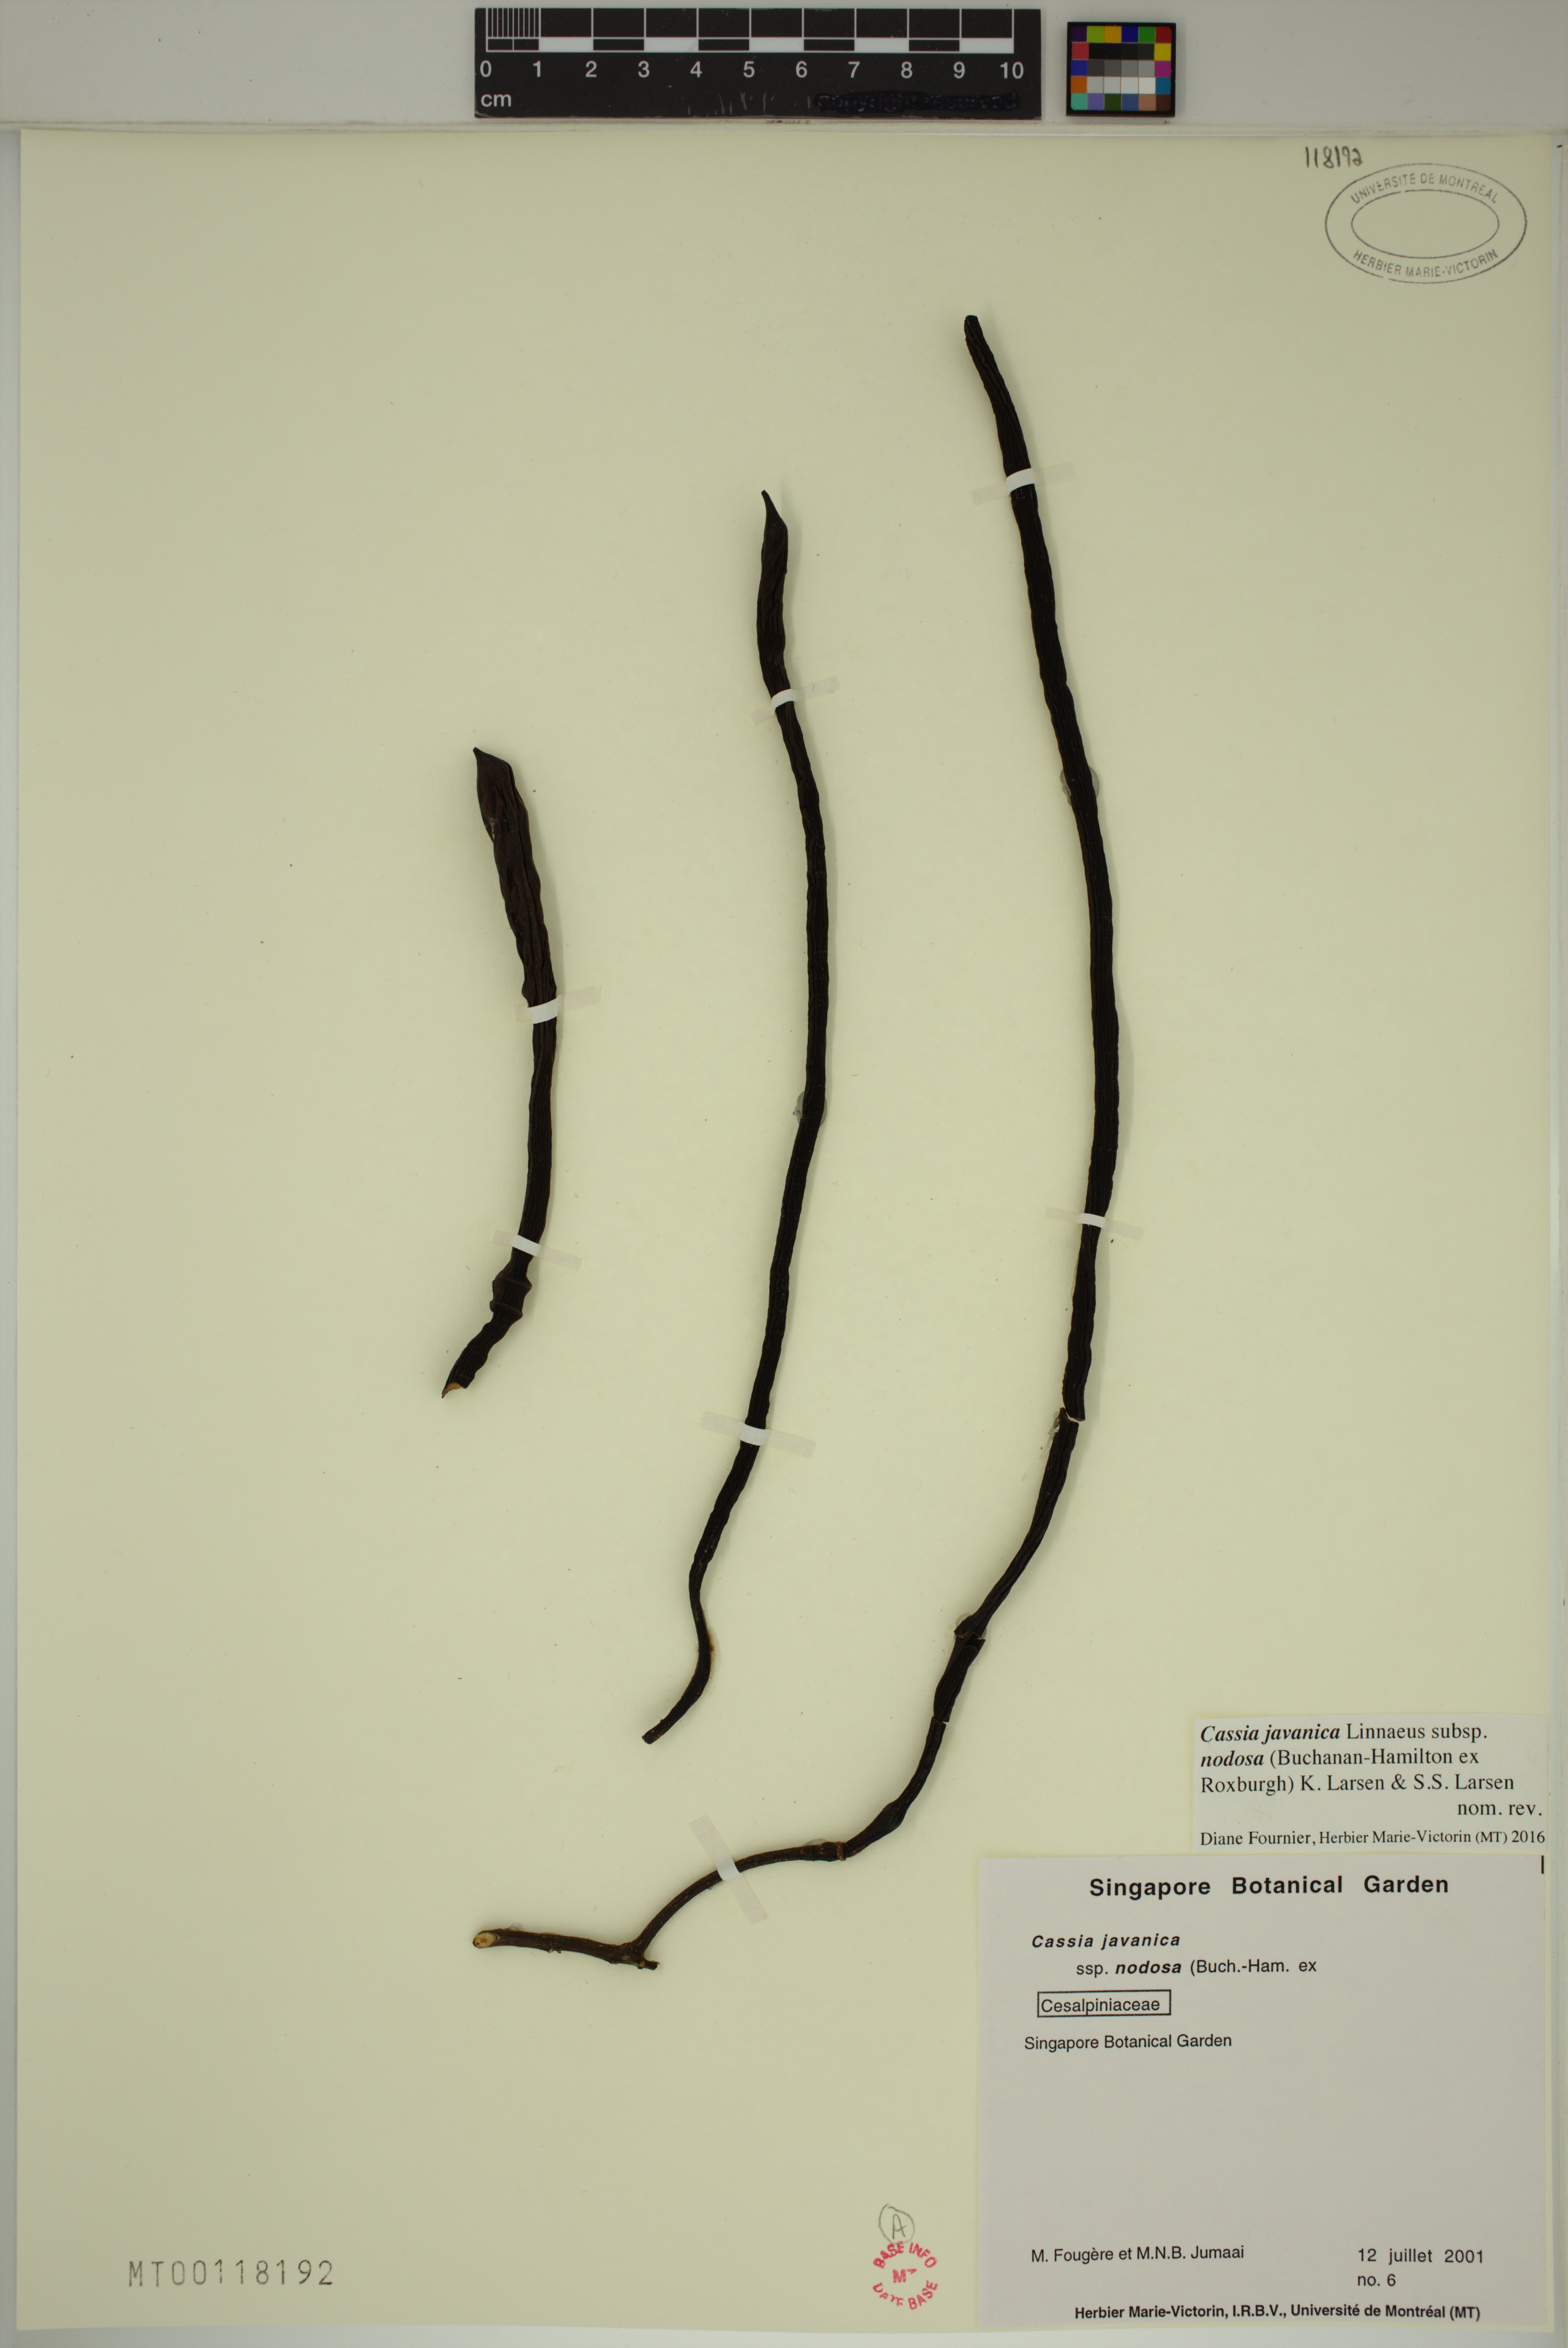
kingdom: Plantae
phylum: Tracheophyta
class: Magnoliopsida
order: Fabales
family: Fabaceae
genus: Cassia
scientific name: Cassia javanica
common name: Apple blossom
